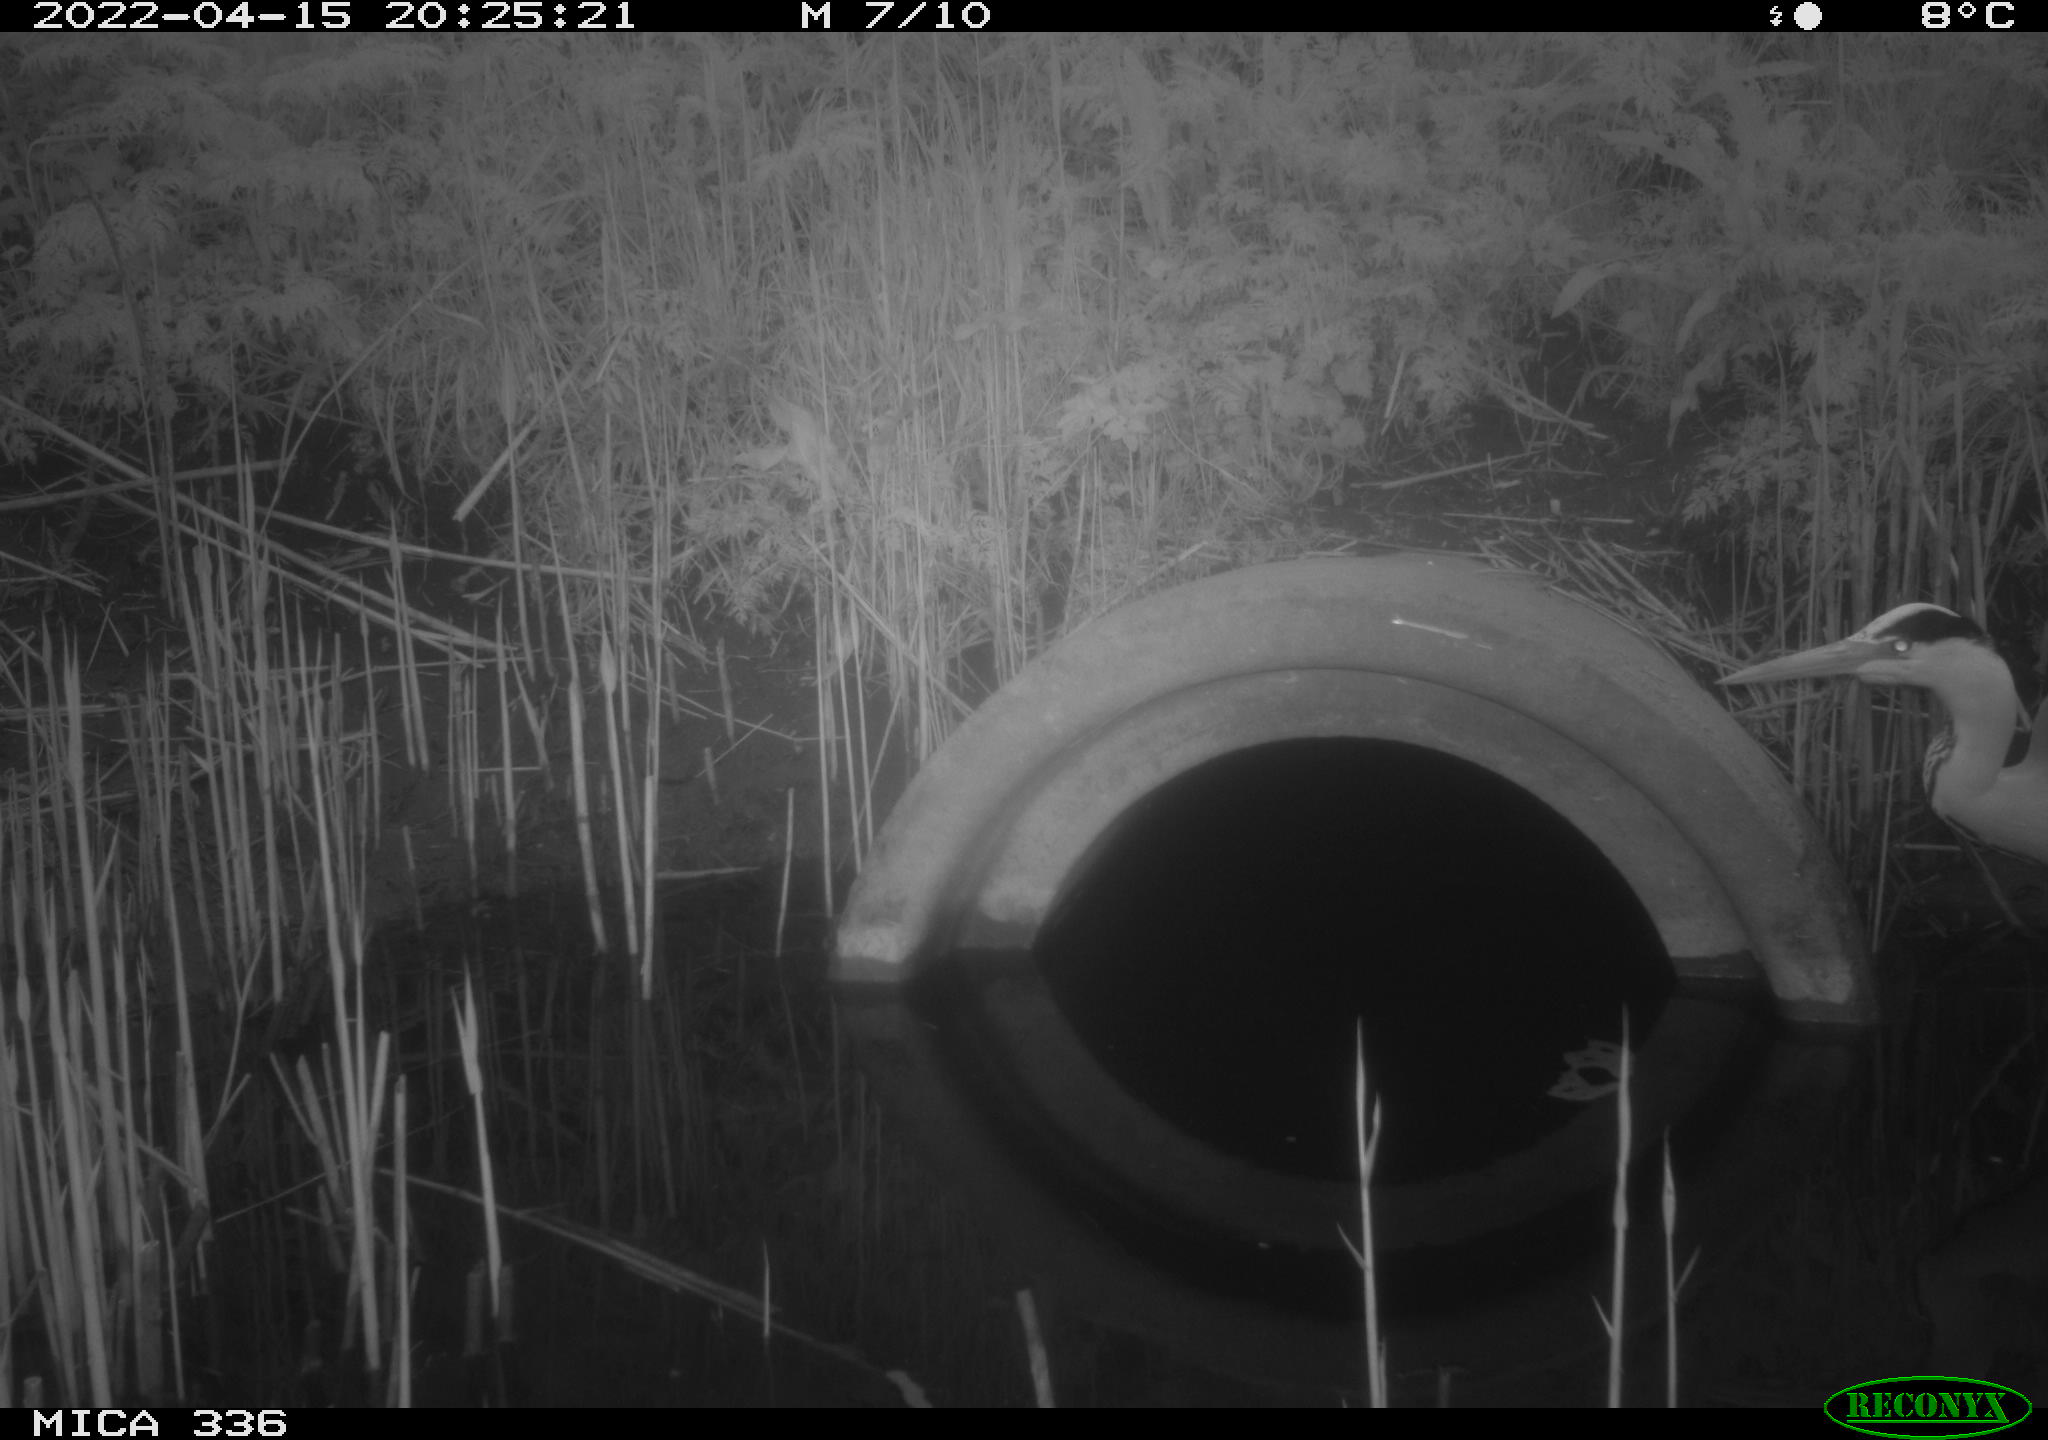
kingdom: Animalia
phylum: Chordata
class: Aves
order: Pelecaniformes
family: Ardeidae
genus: Ardea
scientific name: Ardea cinerea
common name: Grey heron
